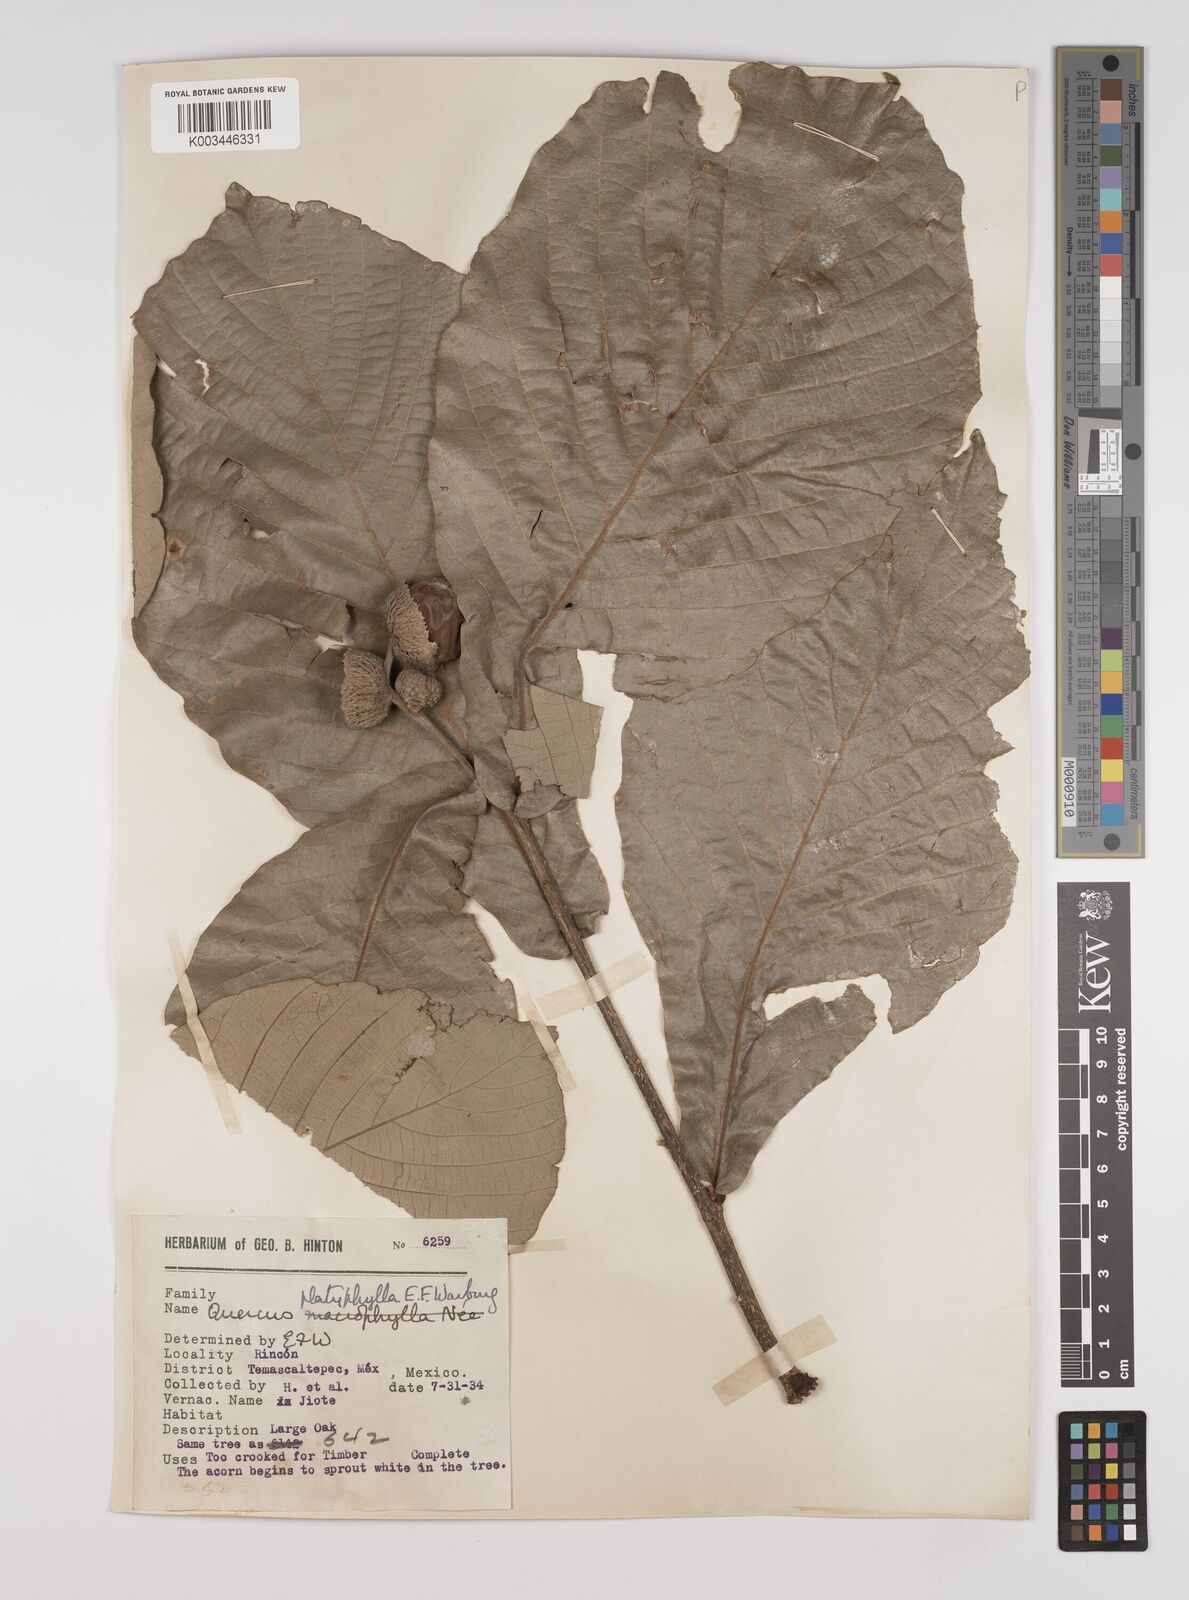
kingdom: Plantae
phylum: Tracheophyta
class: Magnoliopsida
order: Fagales
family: Fagaceae
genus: Quercus
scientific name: Quercus
